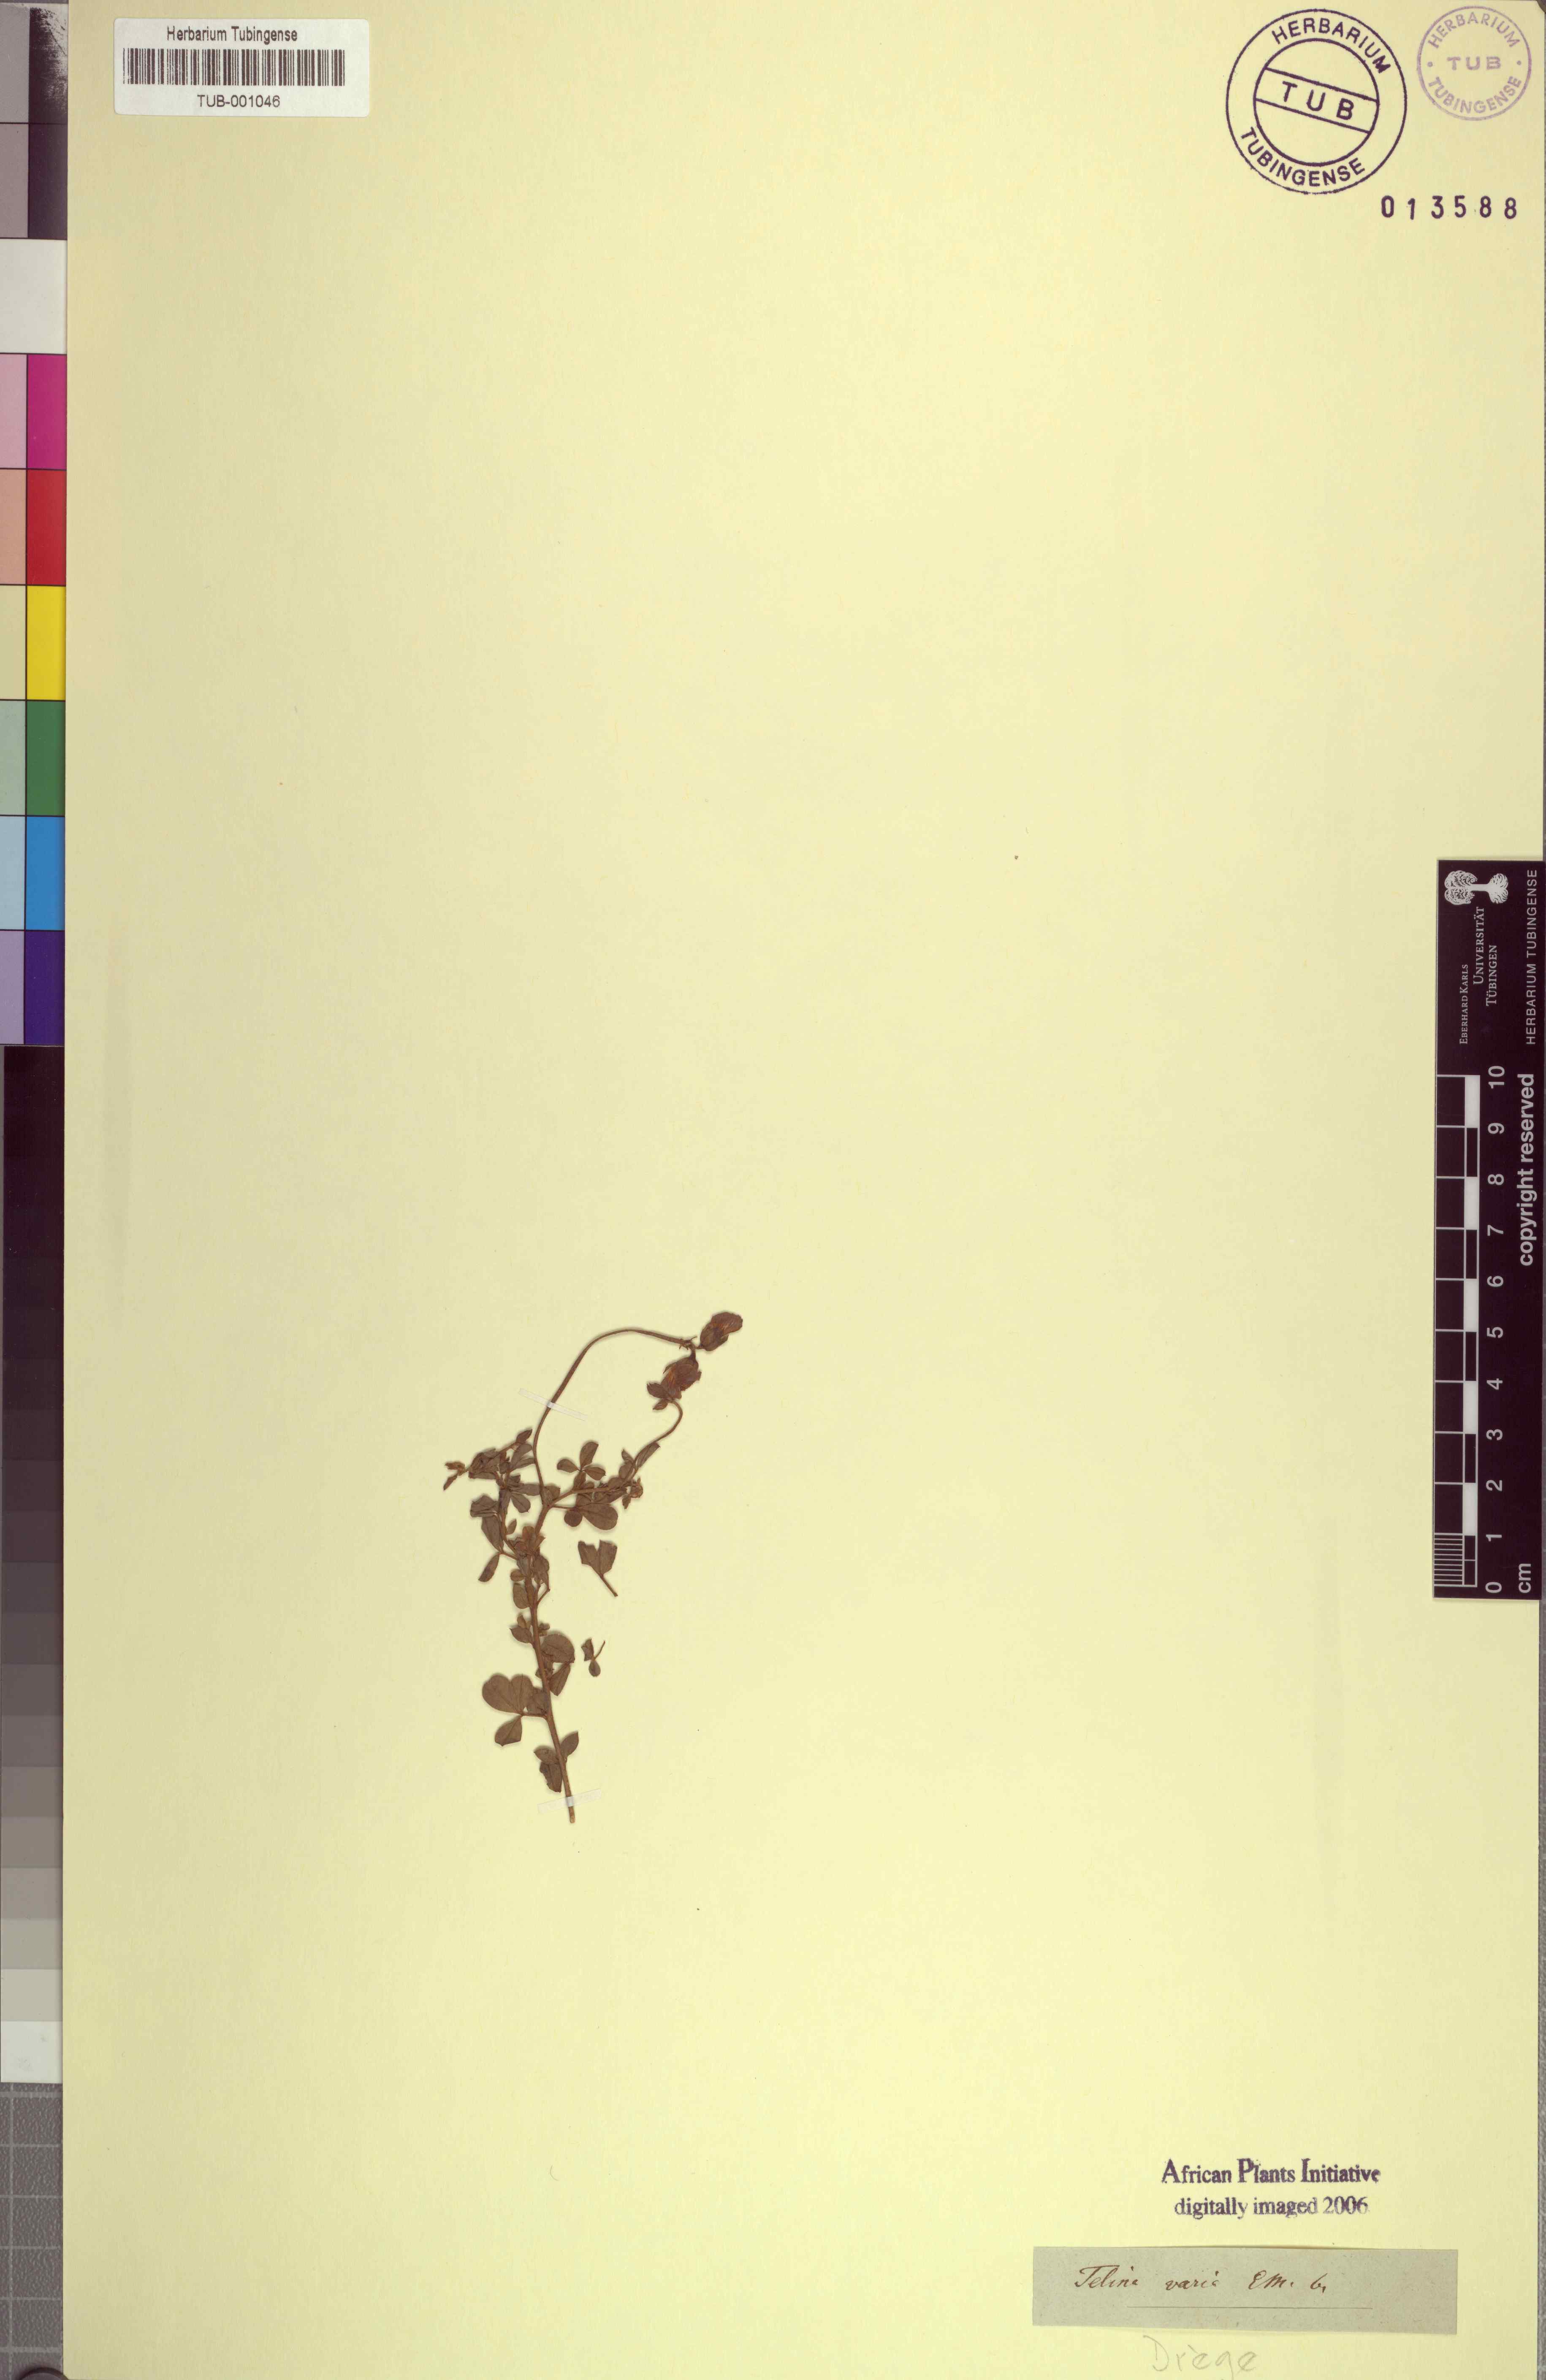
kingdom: Plantae
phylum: Tracheophyta
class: Magnoliopsida
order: Fabales
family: Fabaceae
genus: Lotononis
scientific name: Lotononis varia
